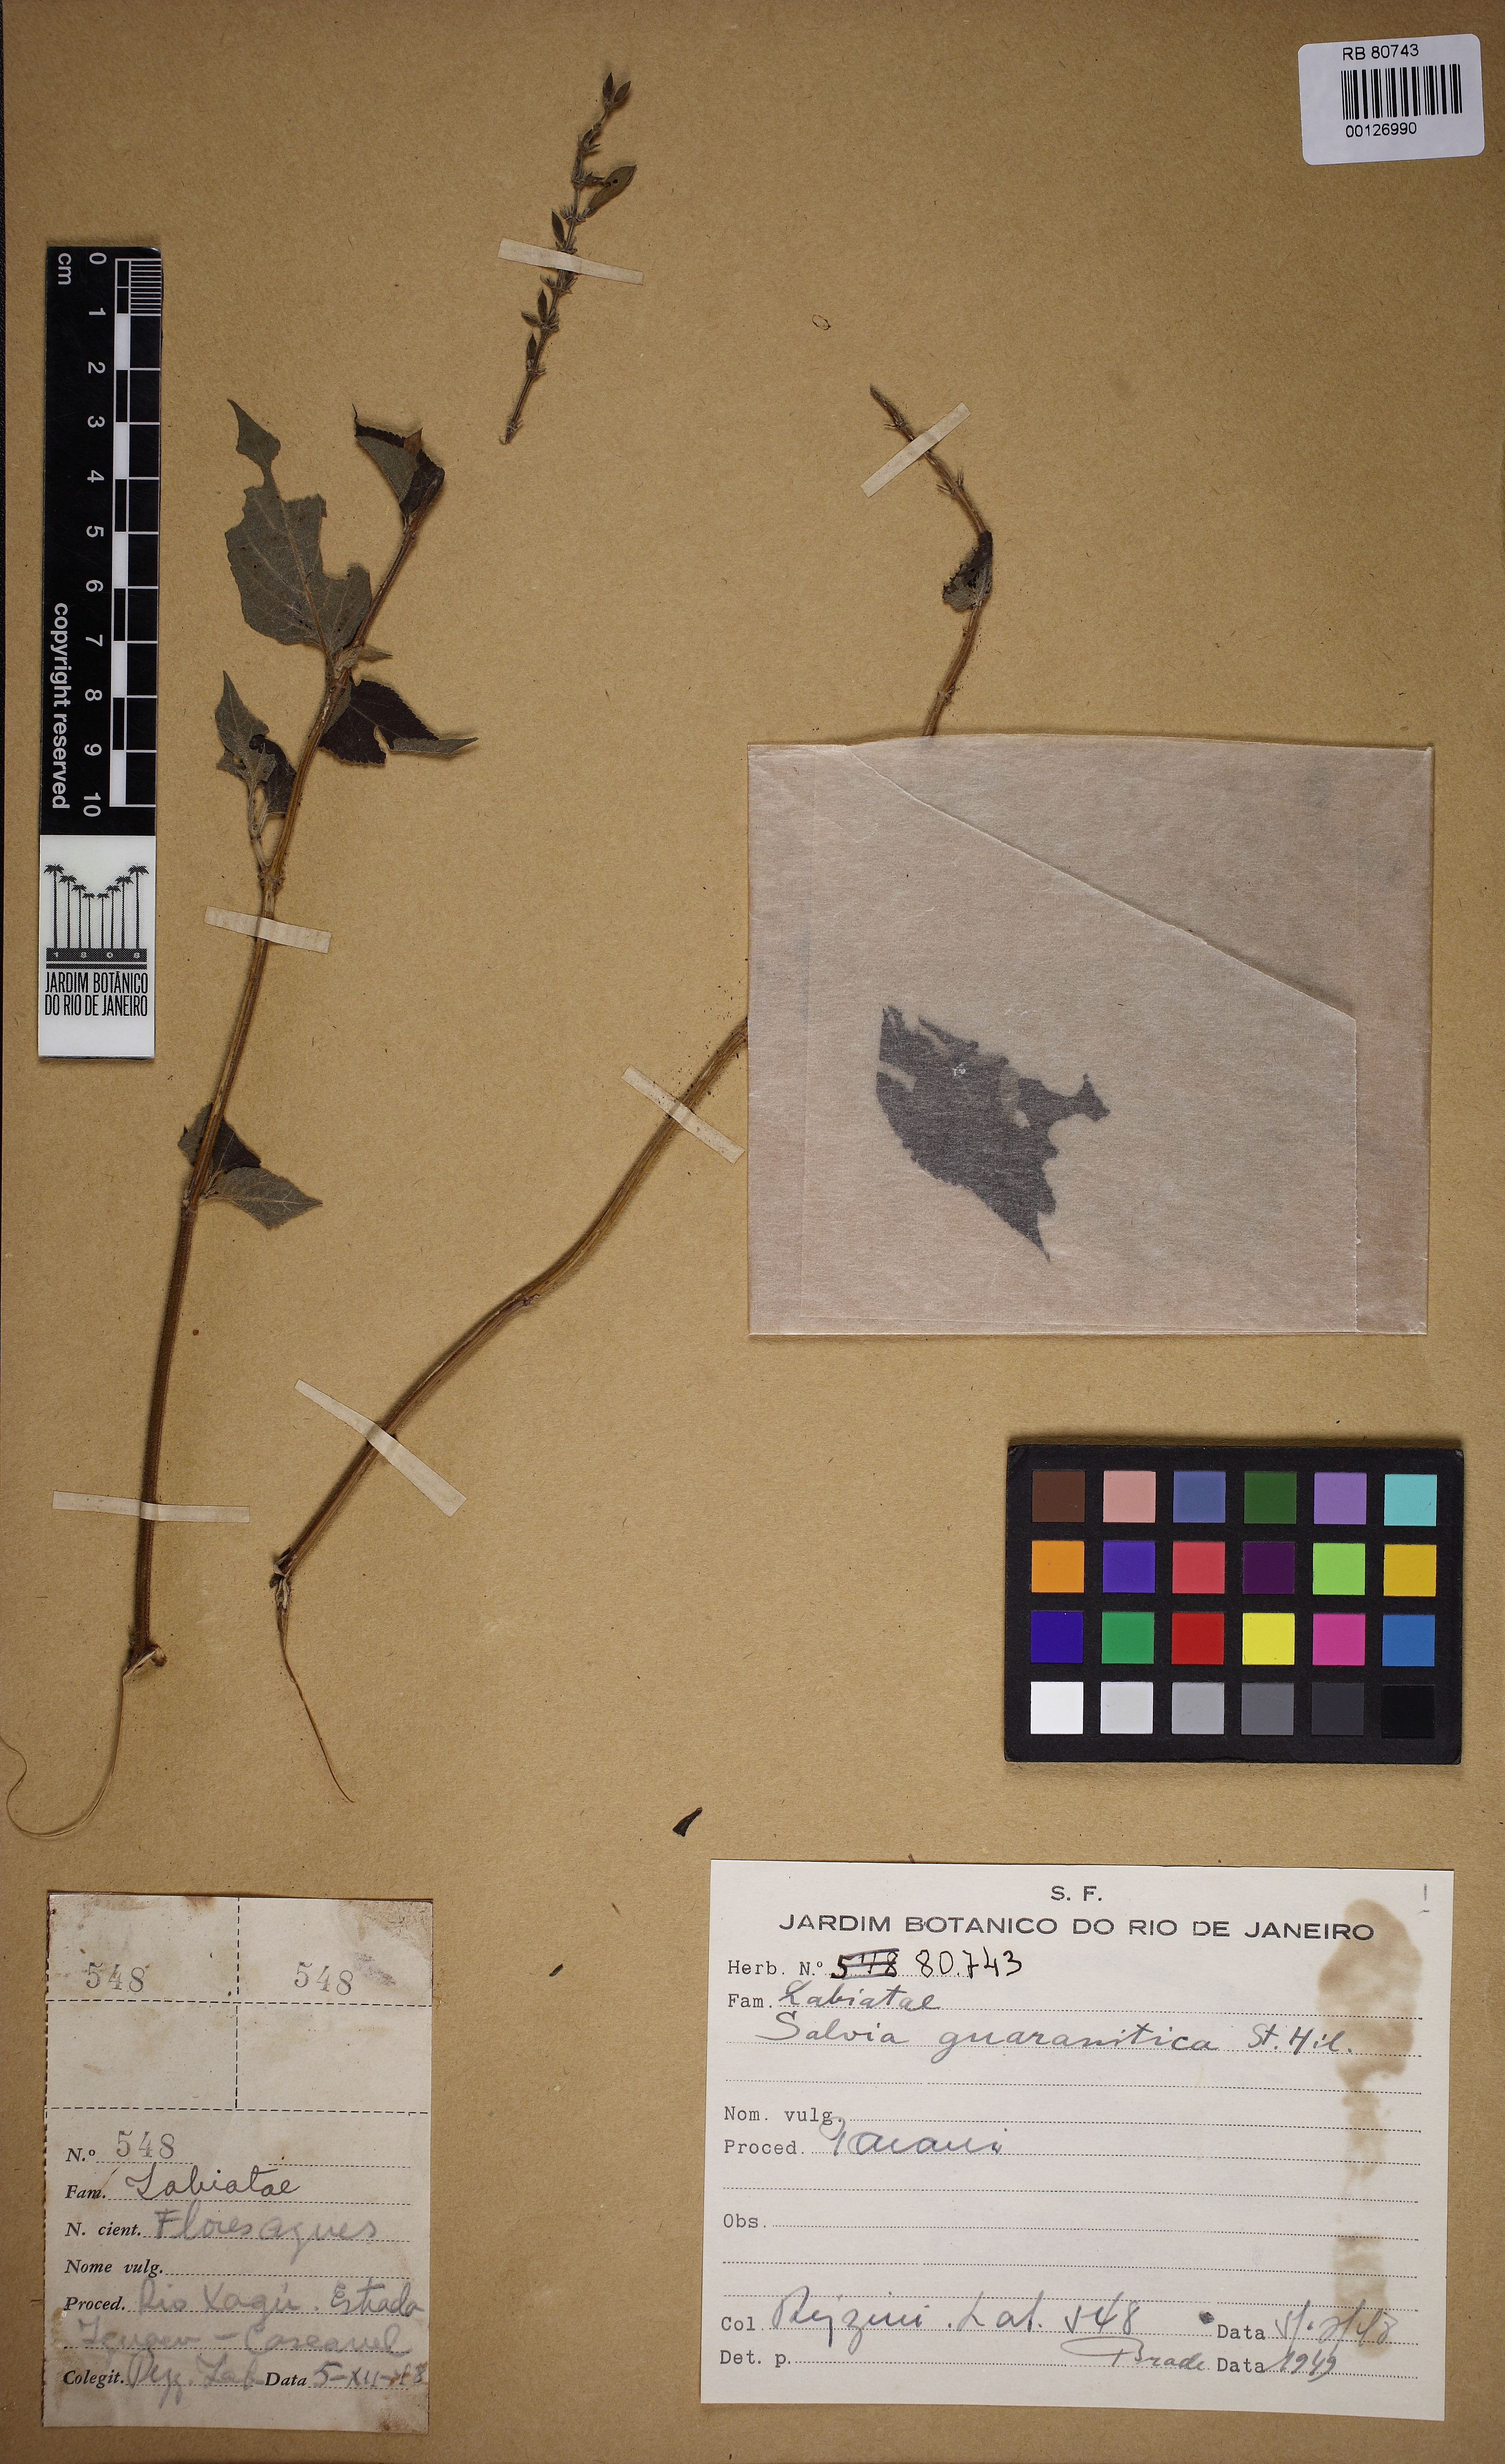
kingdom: Plantae
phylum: Tracheophyta
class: Magnoliopsida
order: Lamiales
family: Lamiaceae
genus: Salvia
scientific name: Salvia guaranitica
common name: Anise-scented sage
